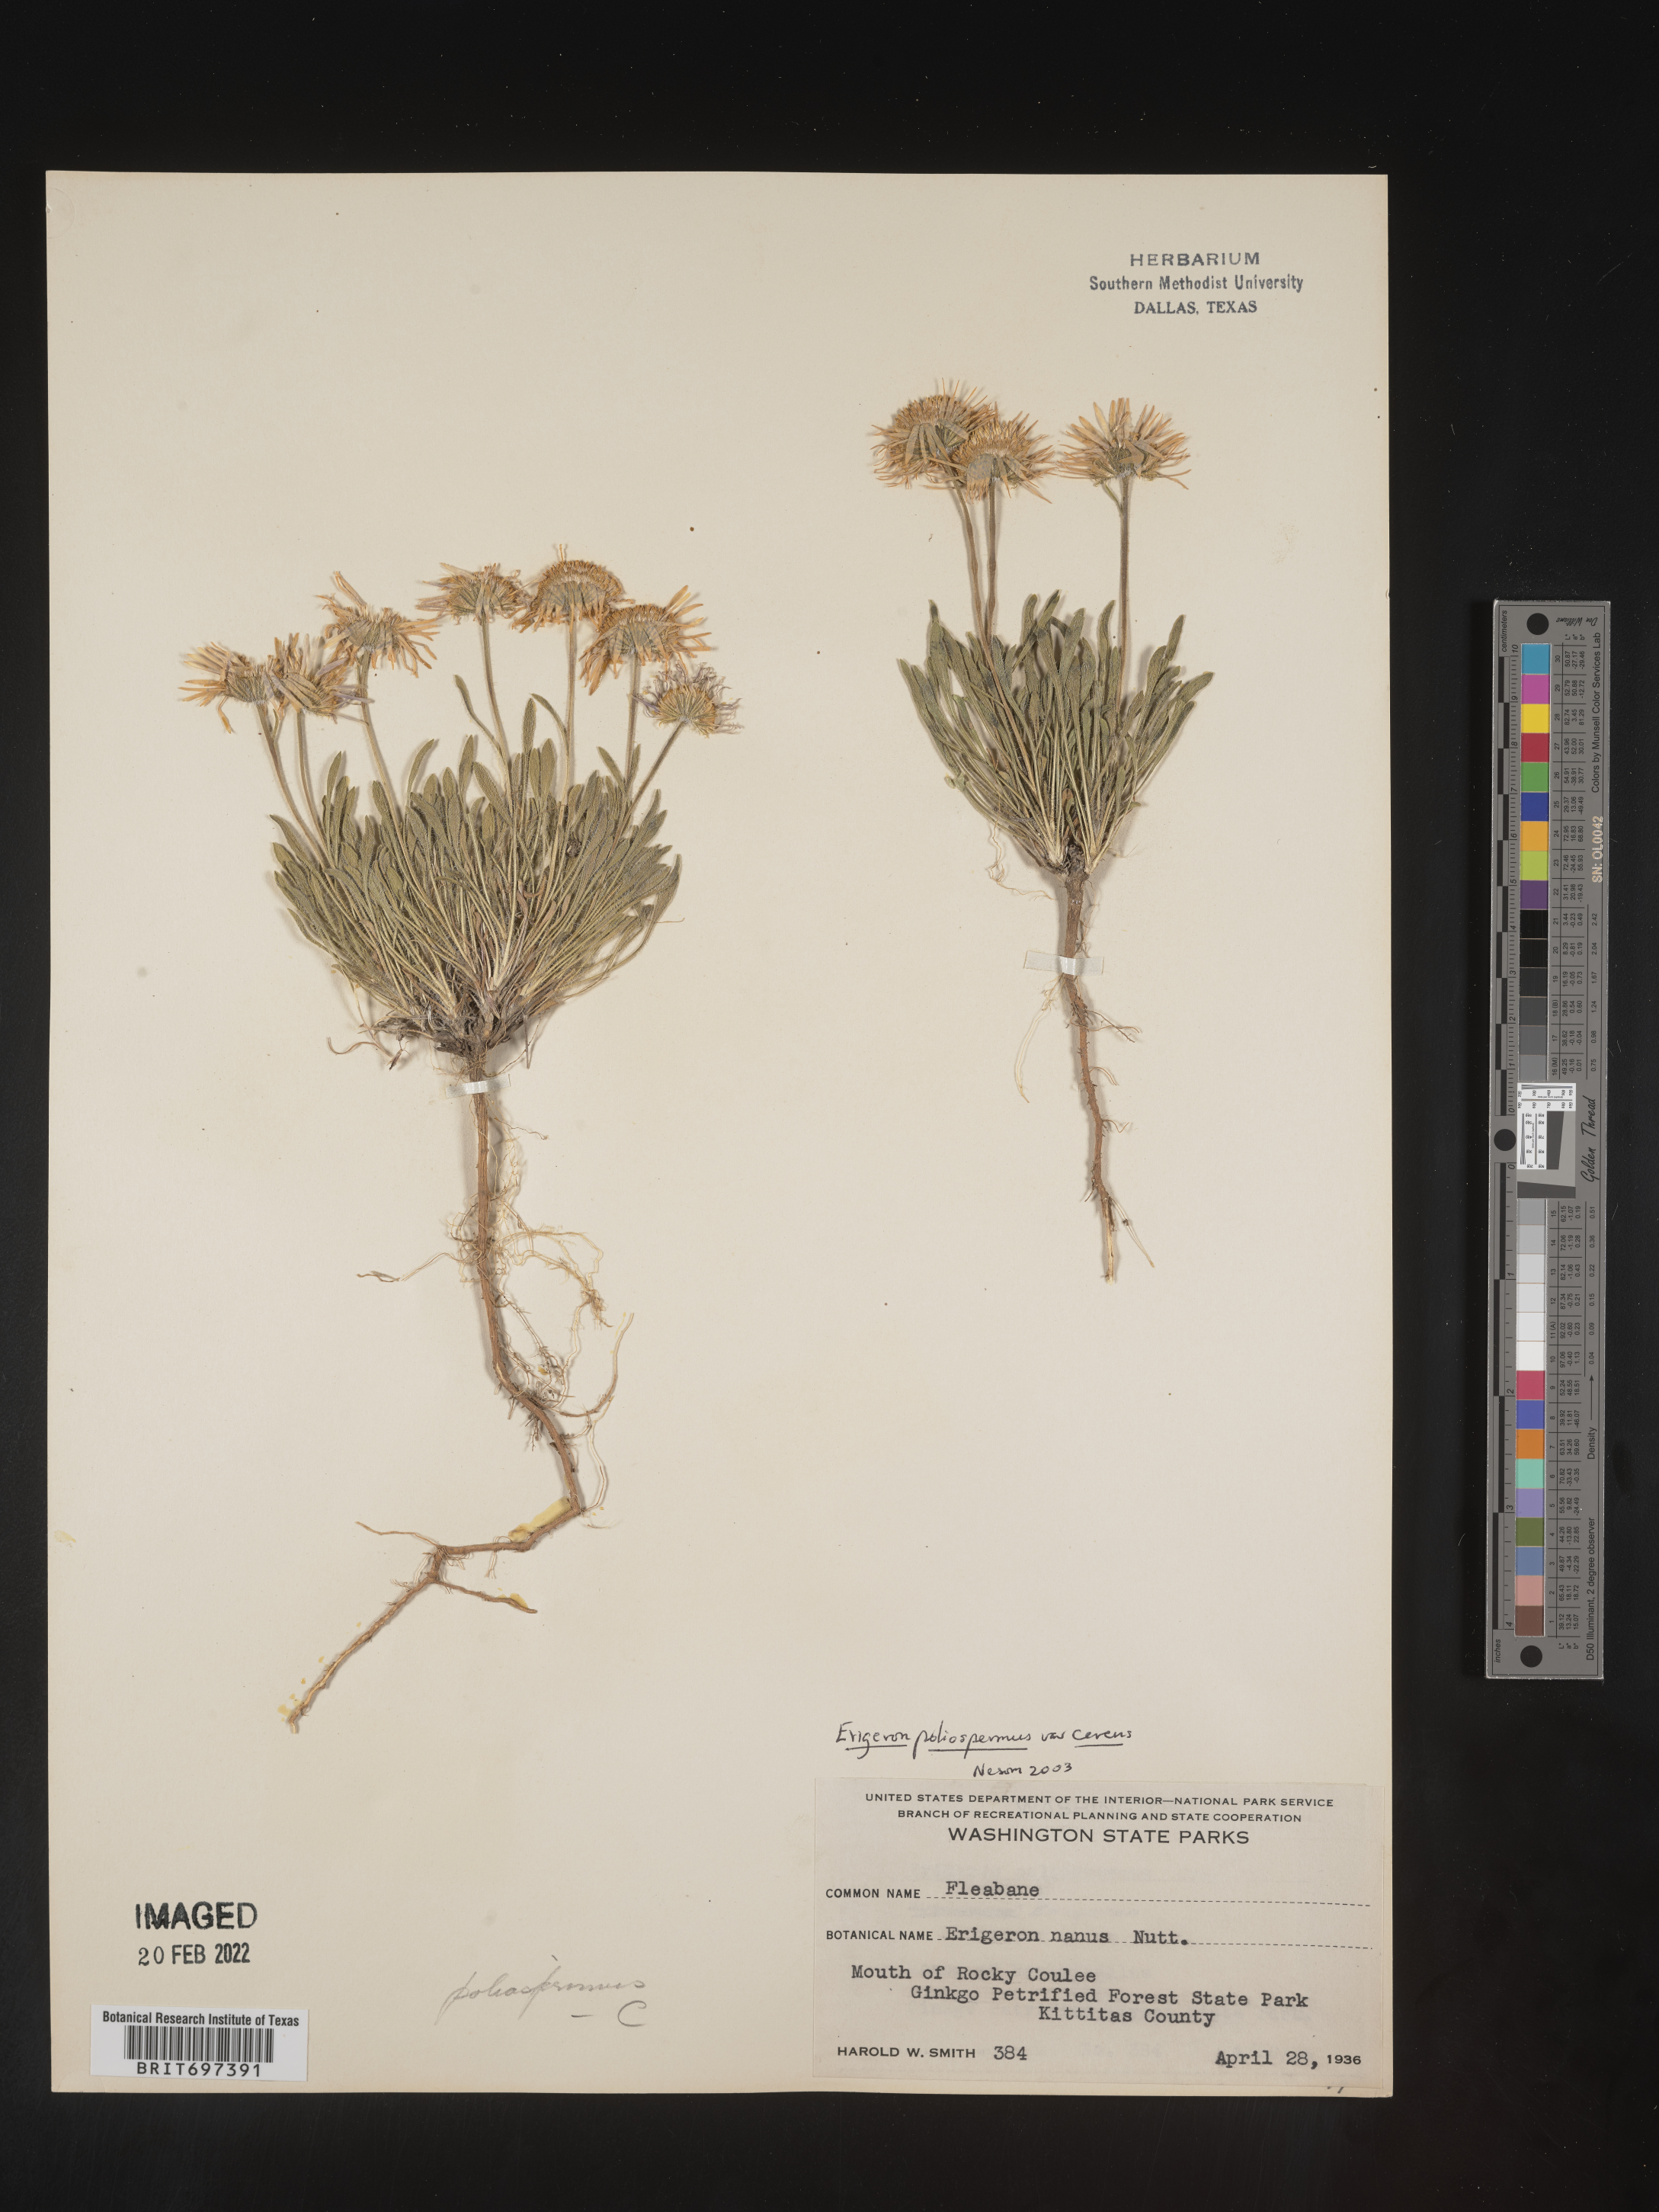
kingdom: Plantae
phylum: Tracheophyta
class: Magnoliopsida
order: Asterales
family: Asteraceae
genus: Erigeron
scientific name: Erigeron poliospermus
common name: Cushion fleabane
